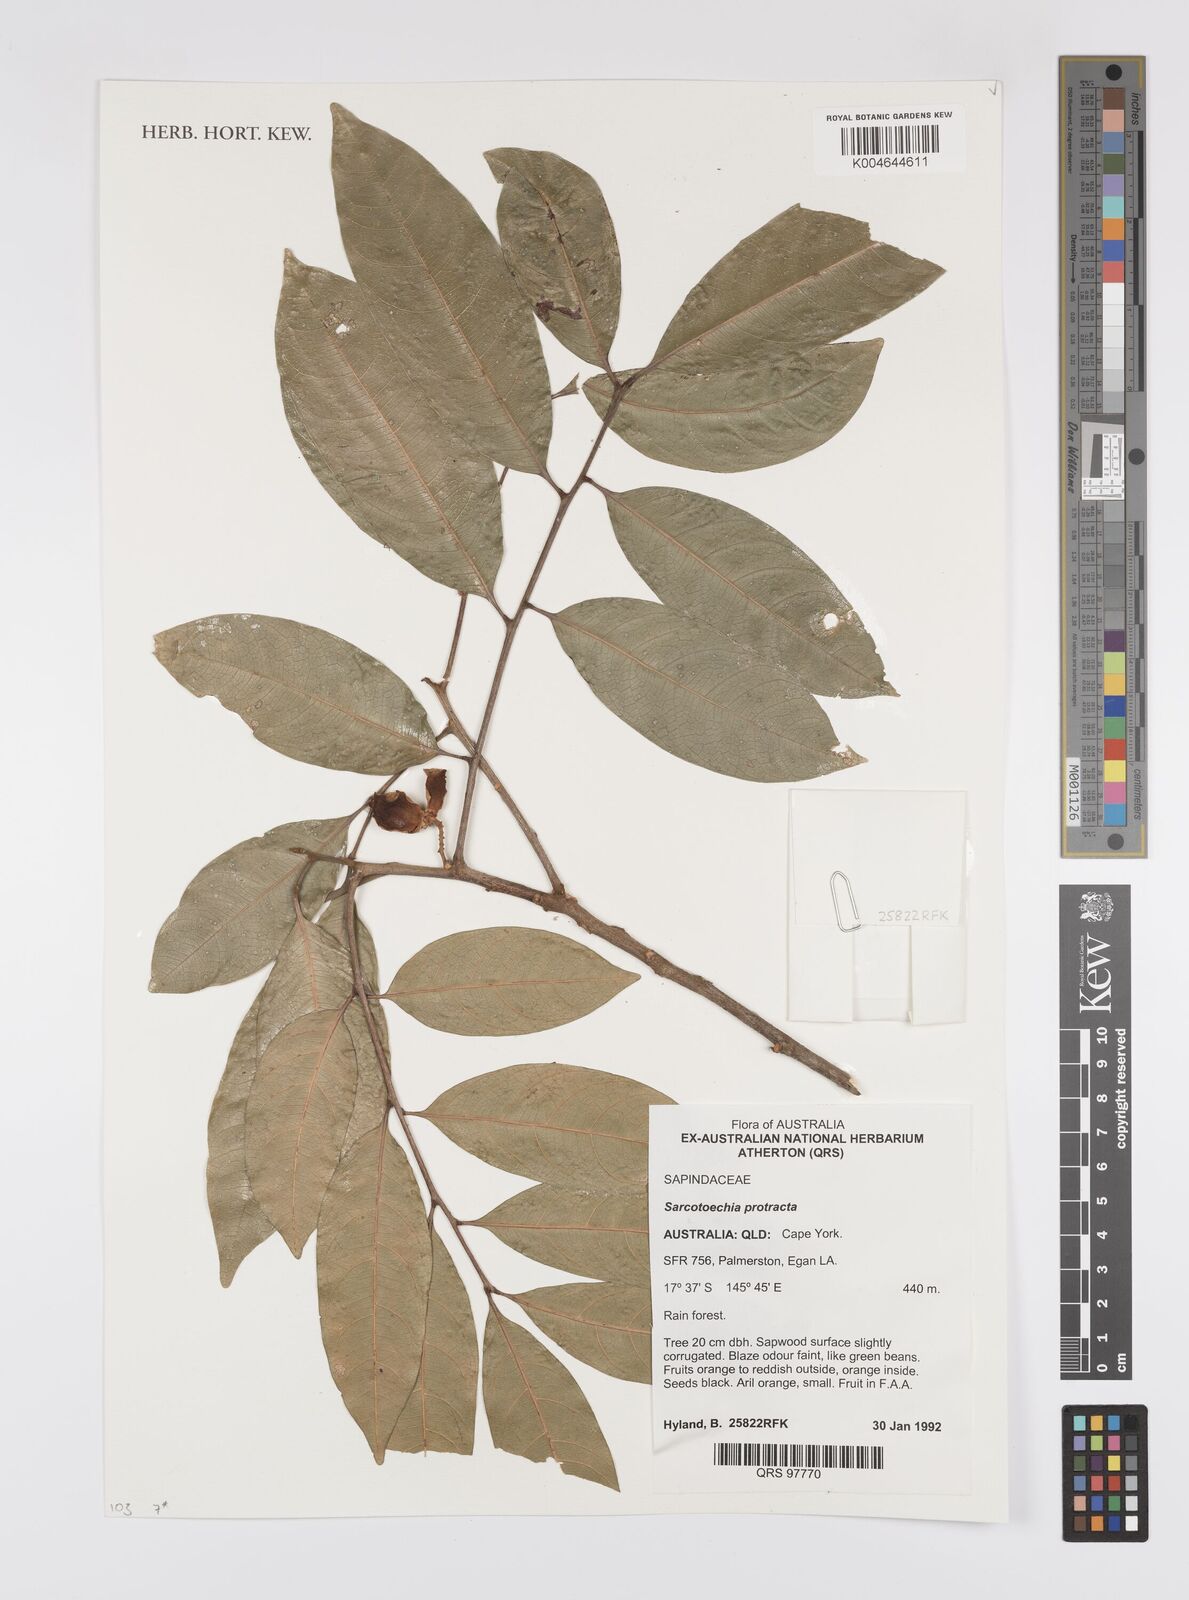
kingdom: Plantae
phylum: Tracheophyta
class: Magnoliopsida
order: Sapindales
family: Sapindaceae
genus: Sarcotoechia
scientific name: Sarcotoechia protracta
